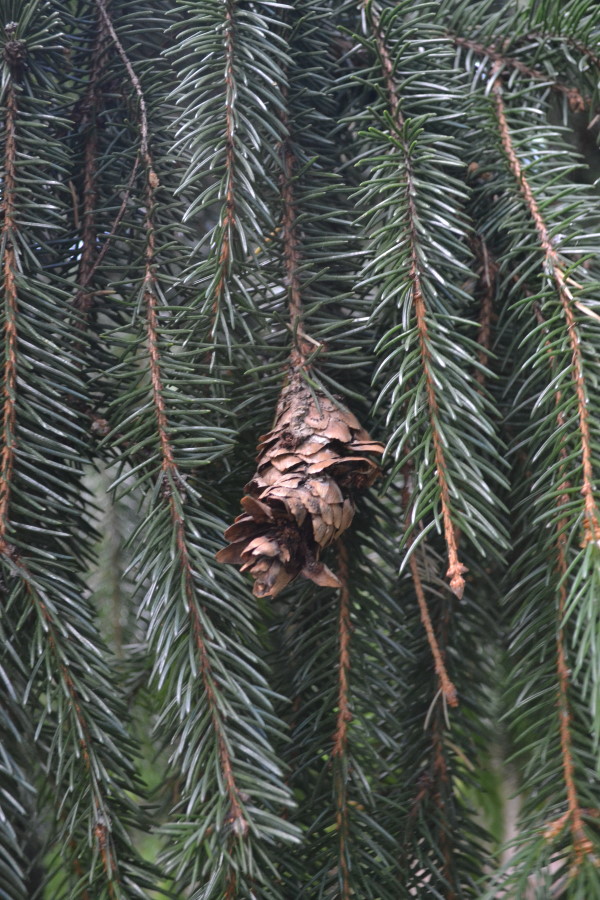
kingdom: Plantae
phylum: Tracheophyta
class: Pinopsida
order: Pinales
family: Pinaceae
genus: Picea
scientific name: Picea abies
